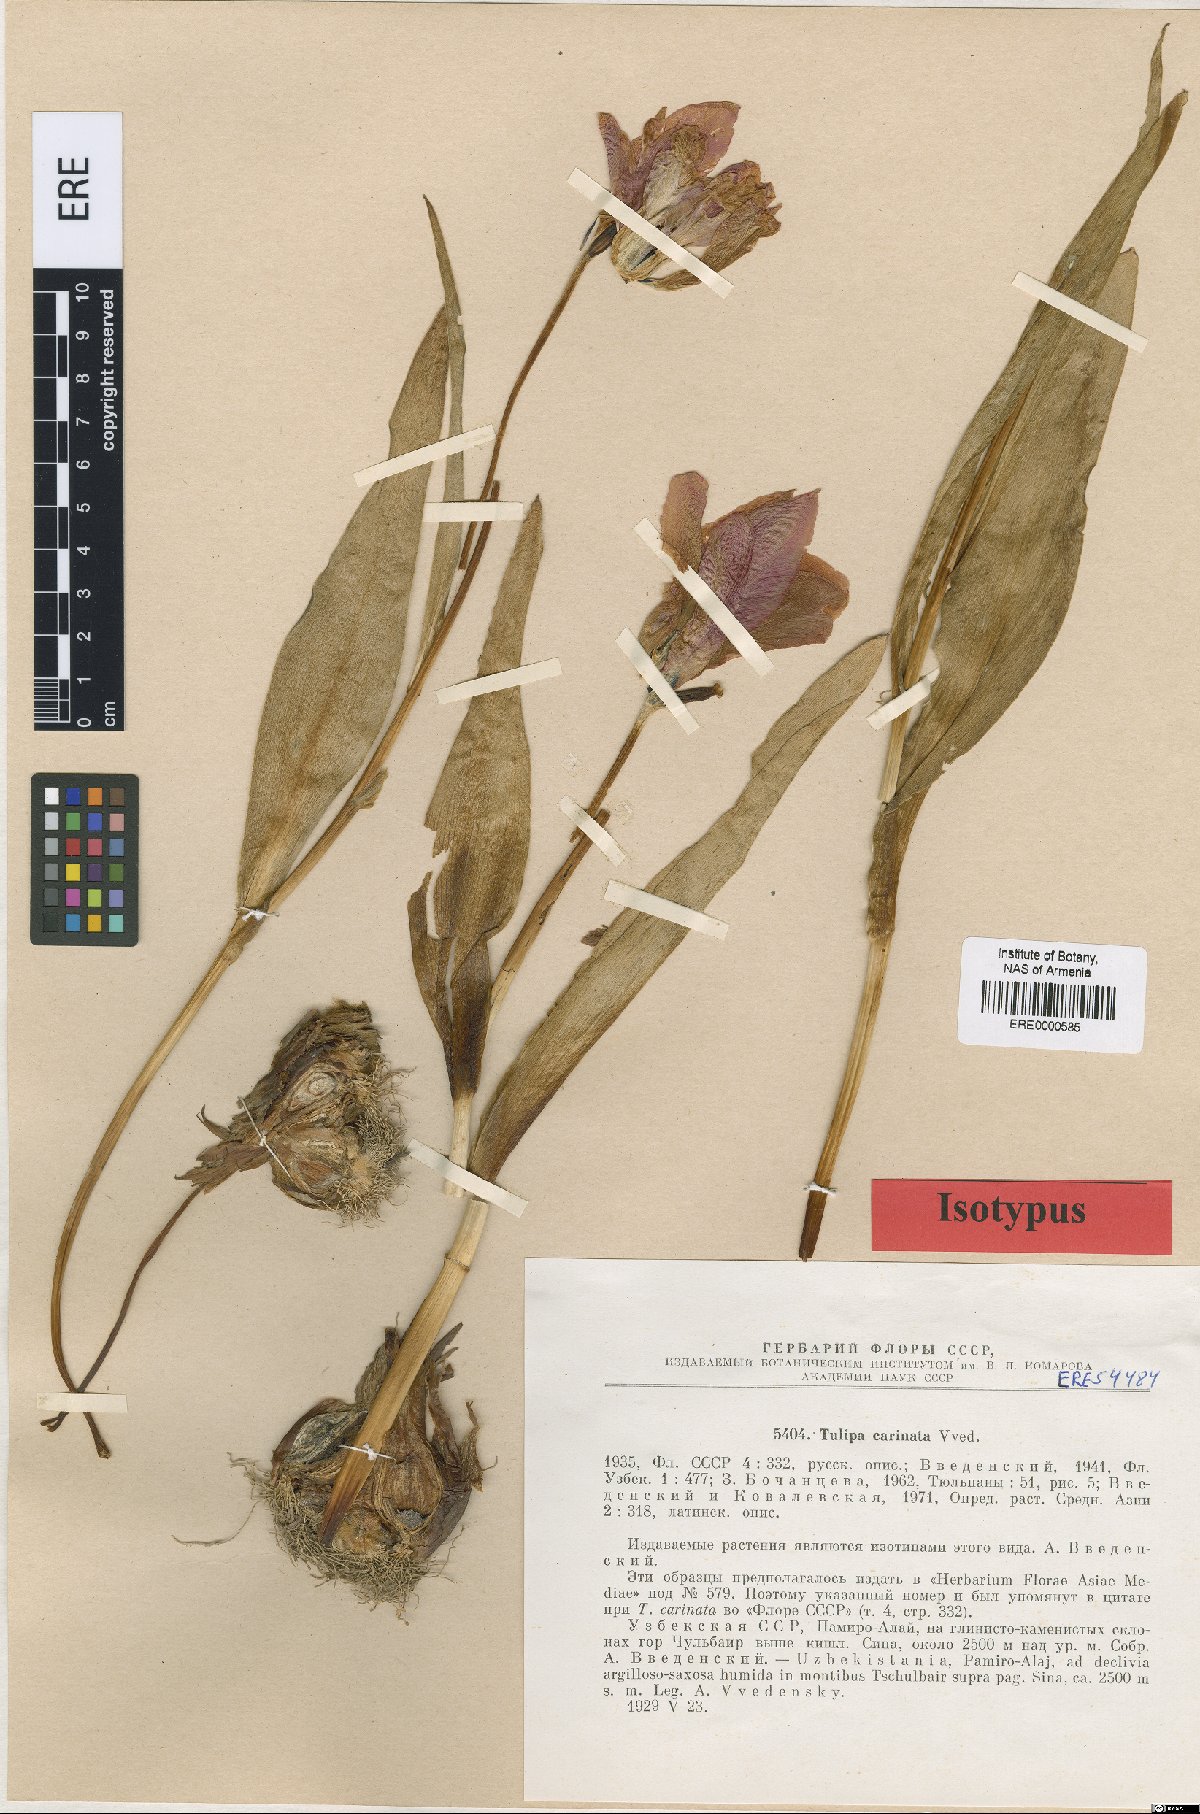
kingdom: Plantae
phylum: Tracheophyta
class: Liliopsida
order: Liliales
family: Liliaceae
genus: Tulipa
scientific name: Tulipa carinata
